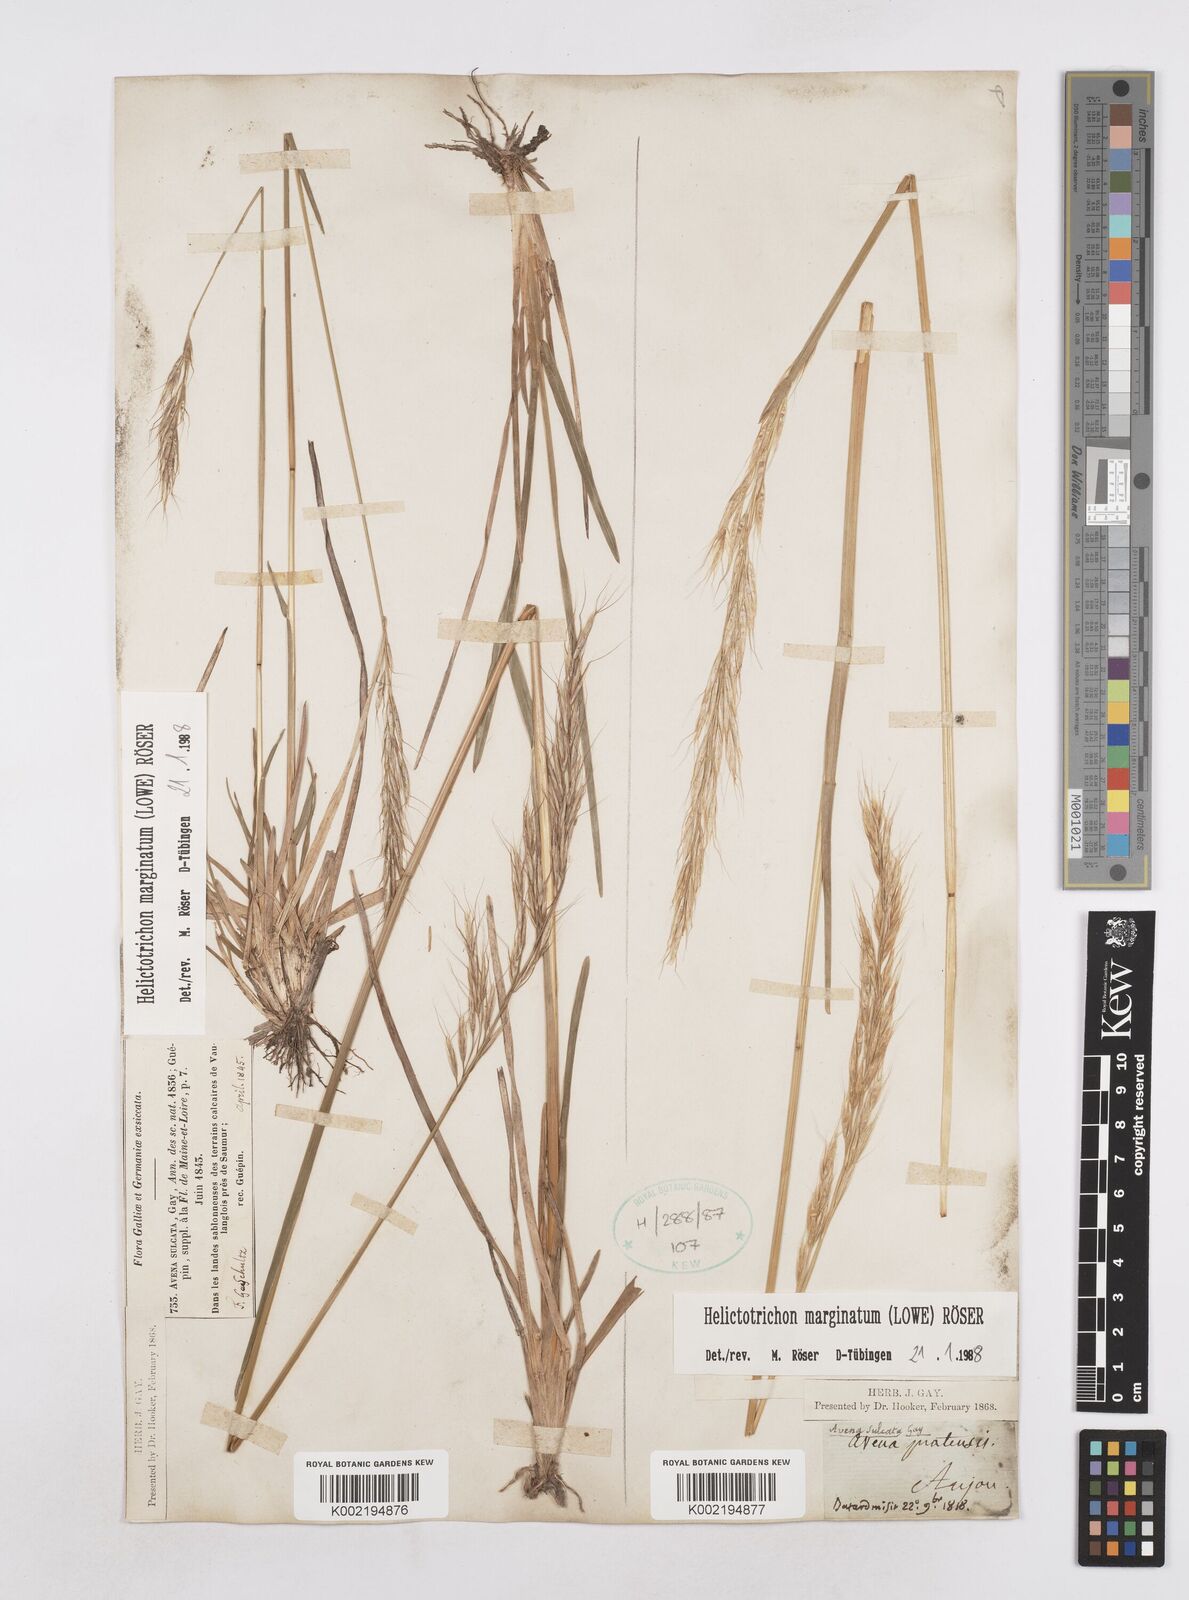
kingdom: Plantae
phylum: Tracheophyta
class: Liliopsida
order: Poales
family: Poaceae
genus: Helictotrichon
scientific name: Helictotrichon
